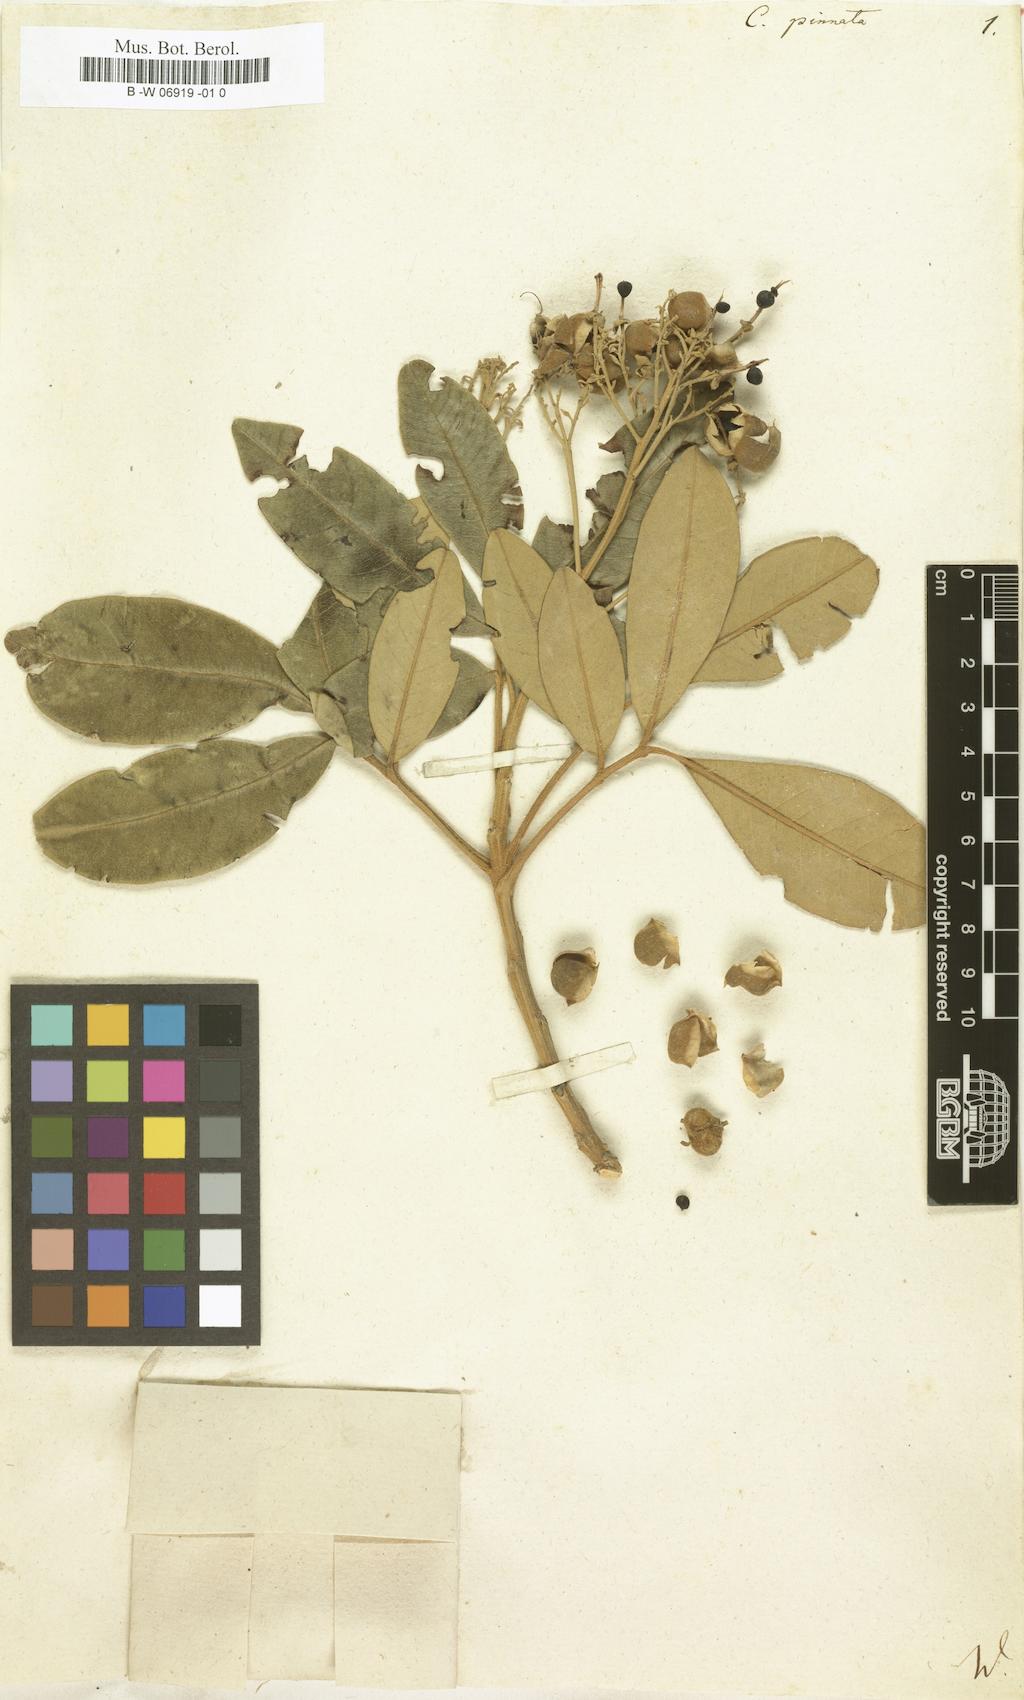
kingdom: Plantae
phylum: Tracheophyta
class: Magnoliopsida
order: Sapindales
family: Sapindaceae
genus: Cossinia
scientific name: Cossinia pinnata
